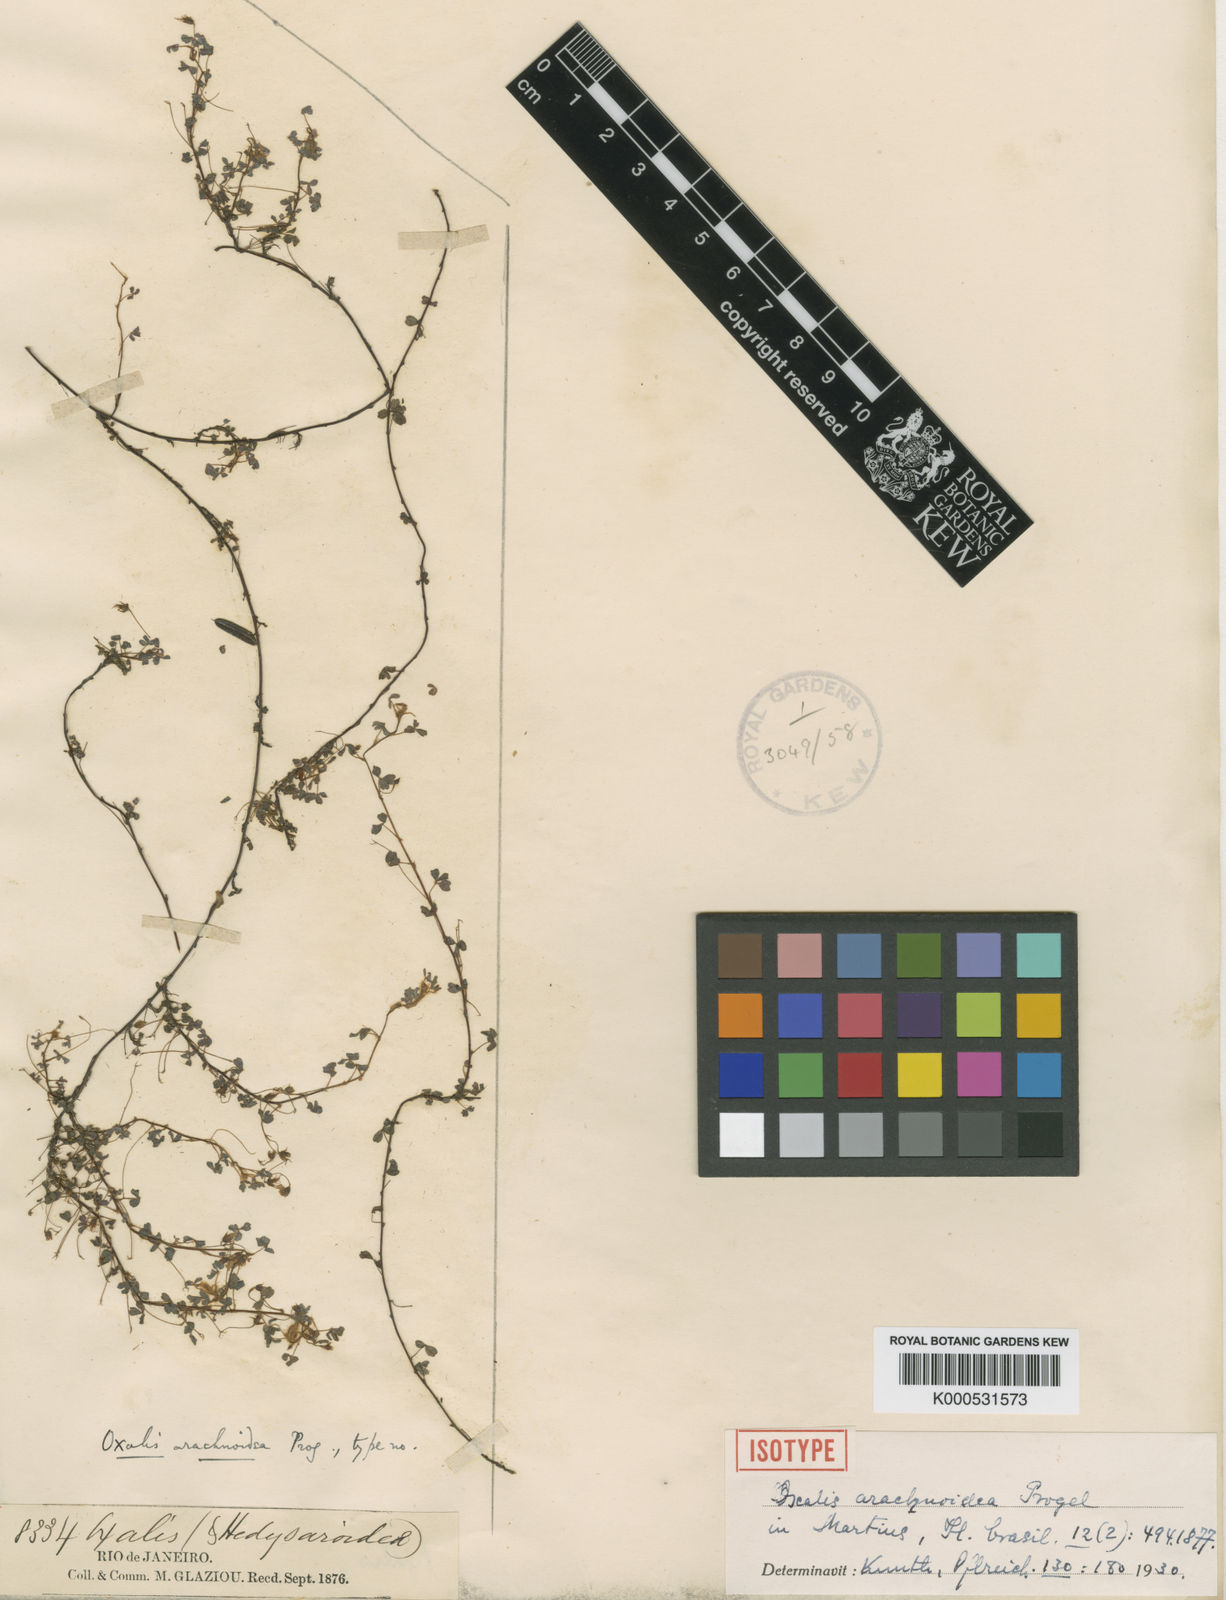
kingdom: Plantae
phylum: Tracheophyta
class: Magnoliopsida
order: Oxalidales
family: Oxalidaceae
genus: Oxalis
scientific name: Oxalis arachnoidea
